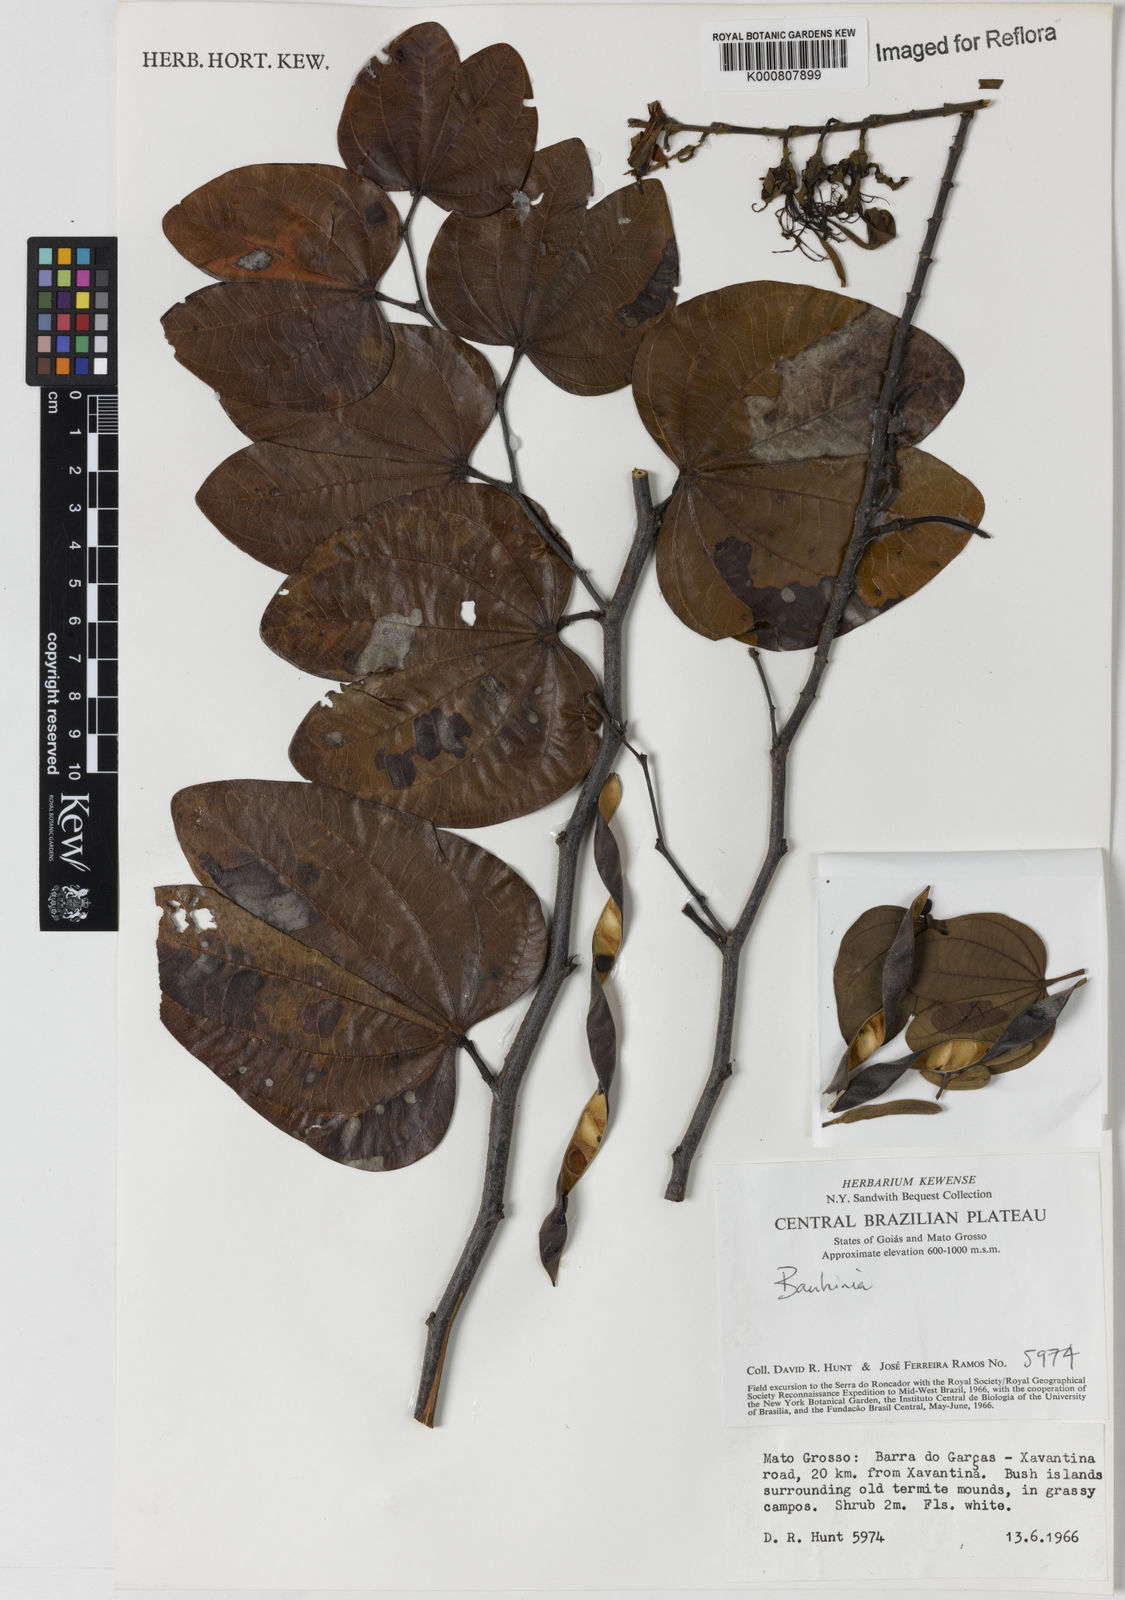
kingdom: Plantae
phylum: Tracheophyta
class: Magnoliopsida
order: Fabales
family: Fabaceae
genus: Bauhinia
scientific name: Bauhinia
